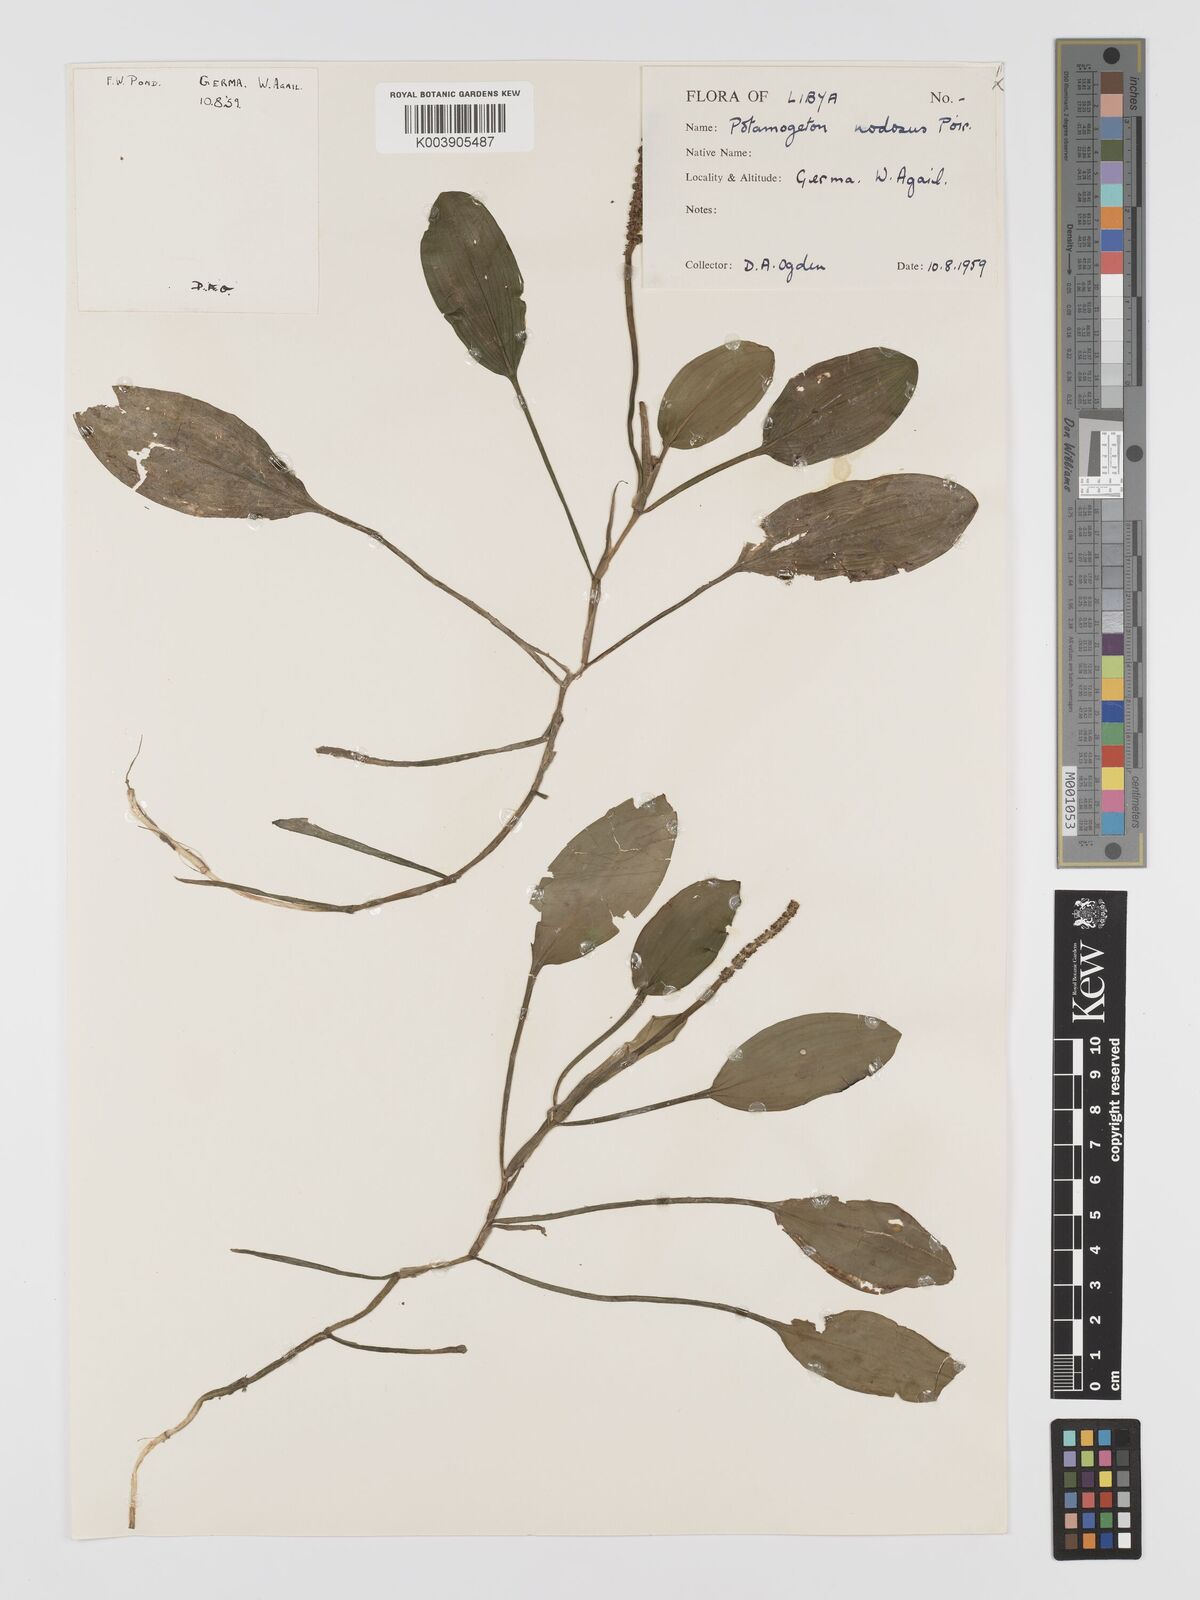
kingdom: Plantae
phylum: Tracheophyta
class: Liliopsida
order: Alismatales
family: Potamogetonaceae
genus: Potamogeton
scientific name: Potamogeton nodosus
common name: Loddon pondweed
